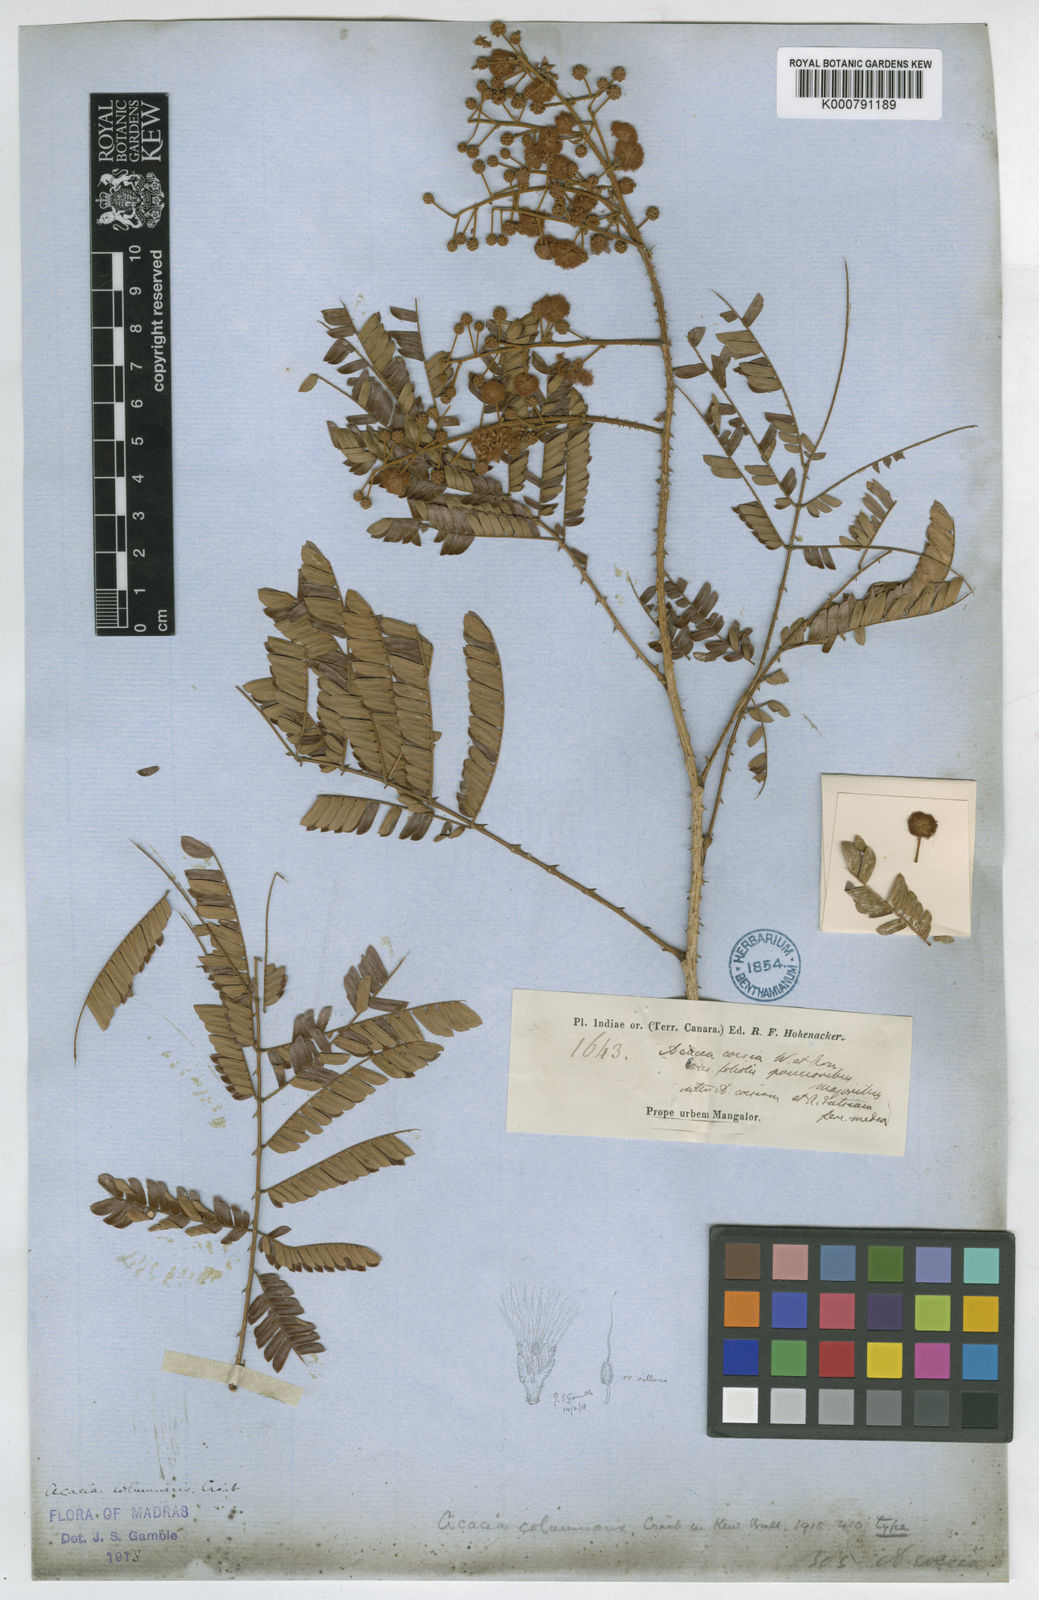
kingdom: Plantae
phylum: Tracheophyta
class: Magnoliopsida
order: Fabales
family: Fabaceae
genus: Senegalia
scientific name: Senegalia caesia
